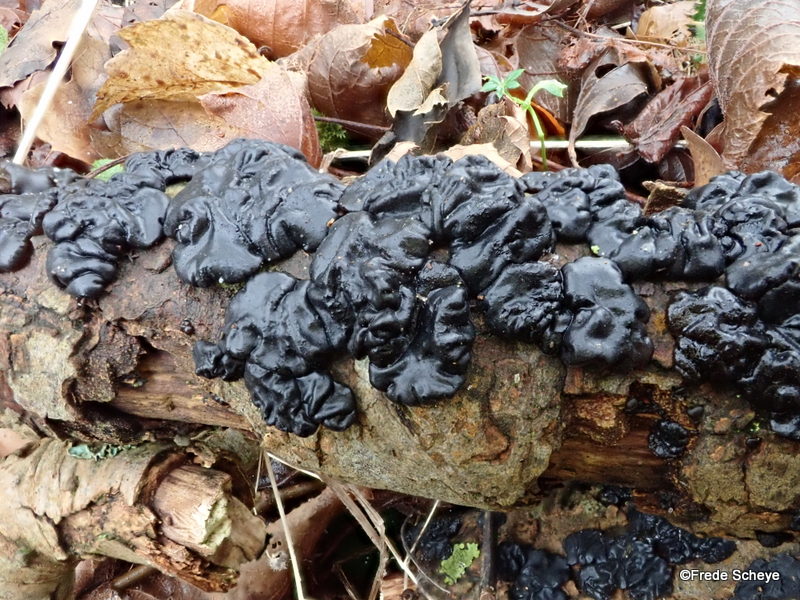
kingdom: Fungi
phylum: Basidiomycota
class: Agaricomycetes
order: Auriculariales
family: Auriculariaceae
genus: Exidia
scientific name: Exidia nigricans
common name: almindelig bævretop
